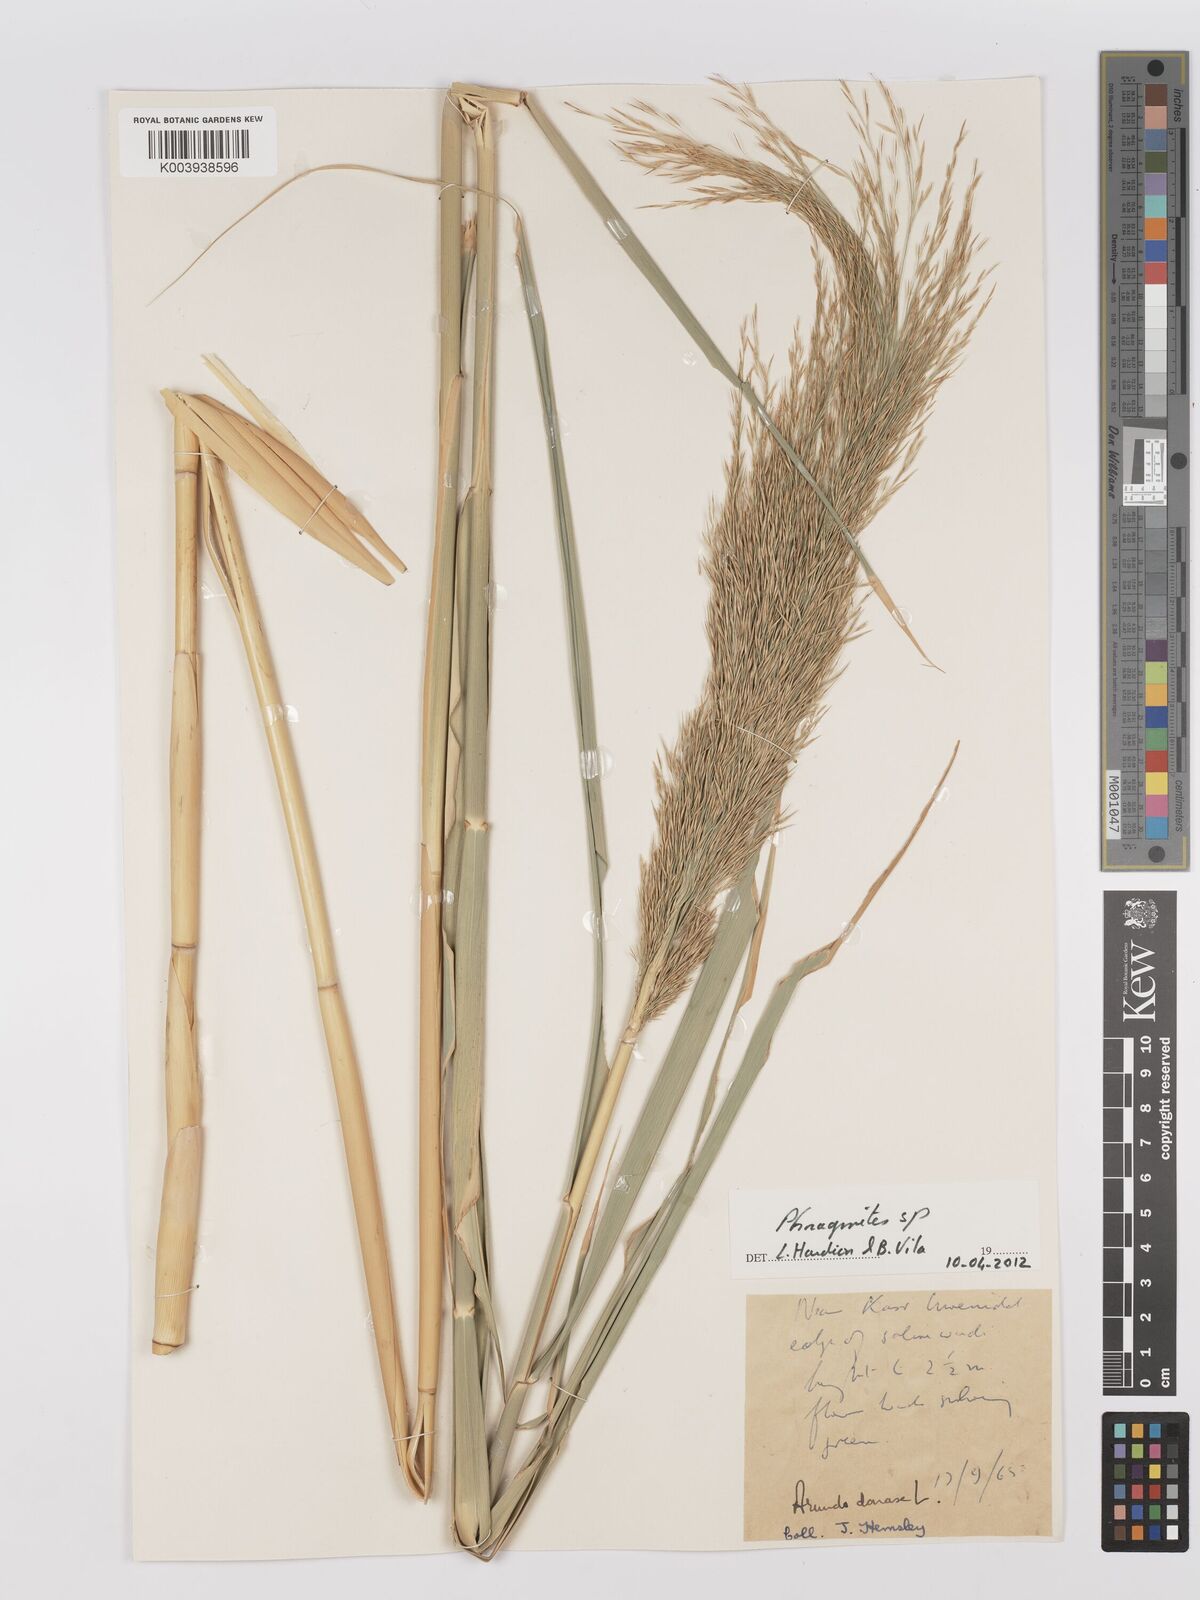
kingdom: Plantae
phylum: Tracheophyta
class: Liliopsida
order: Poales
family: Poaceae
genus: Phragmites
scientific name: Phragmites
